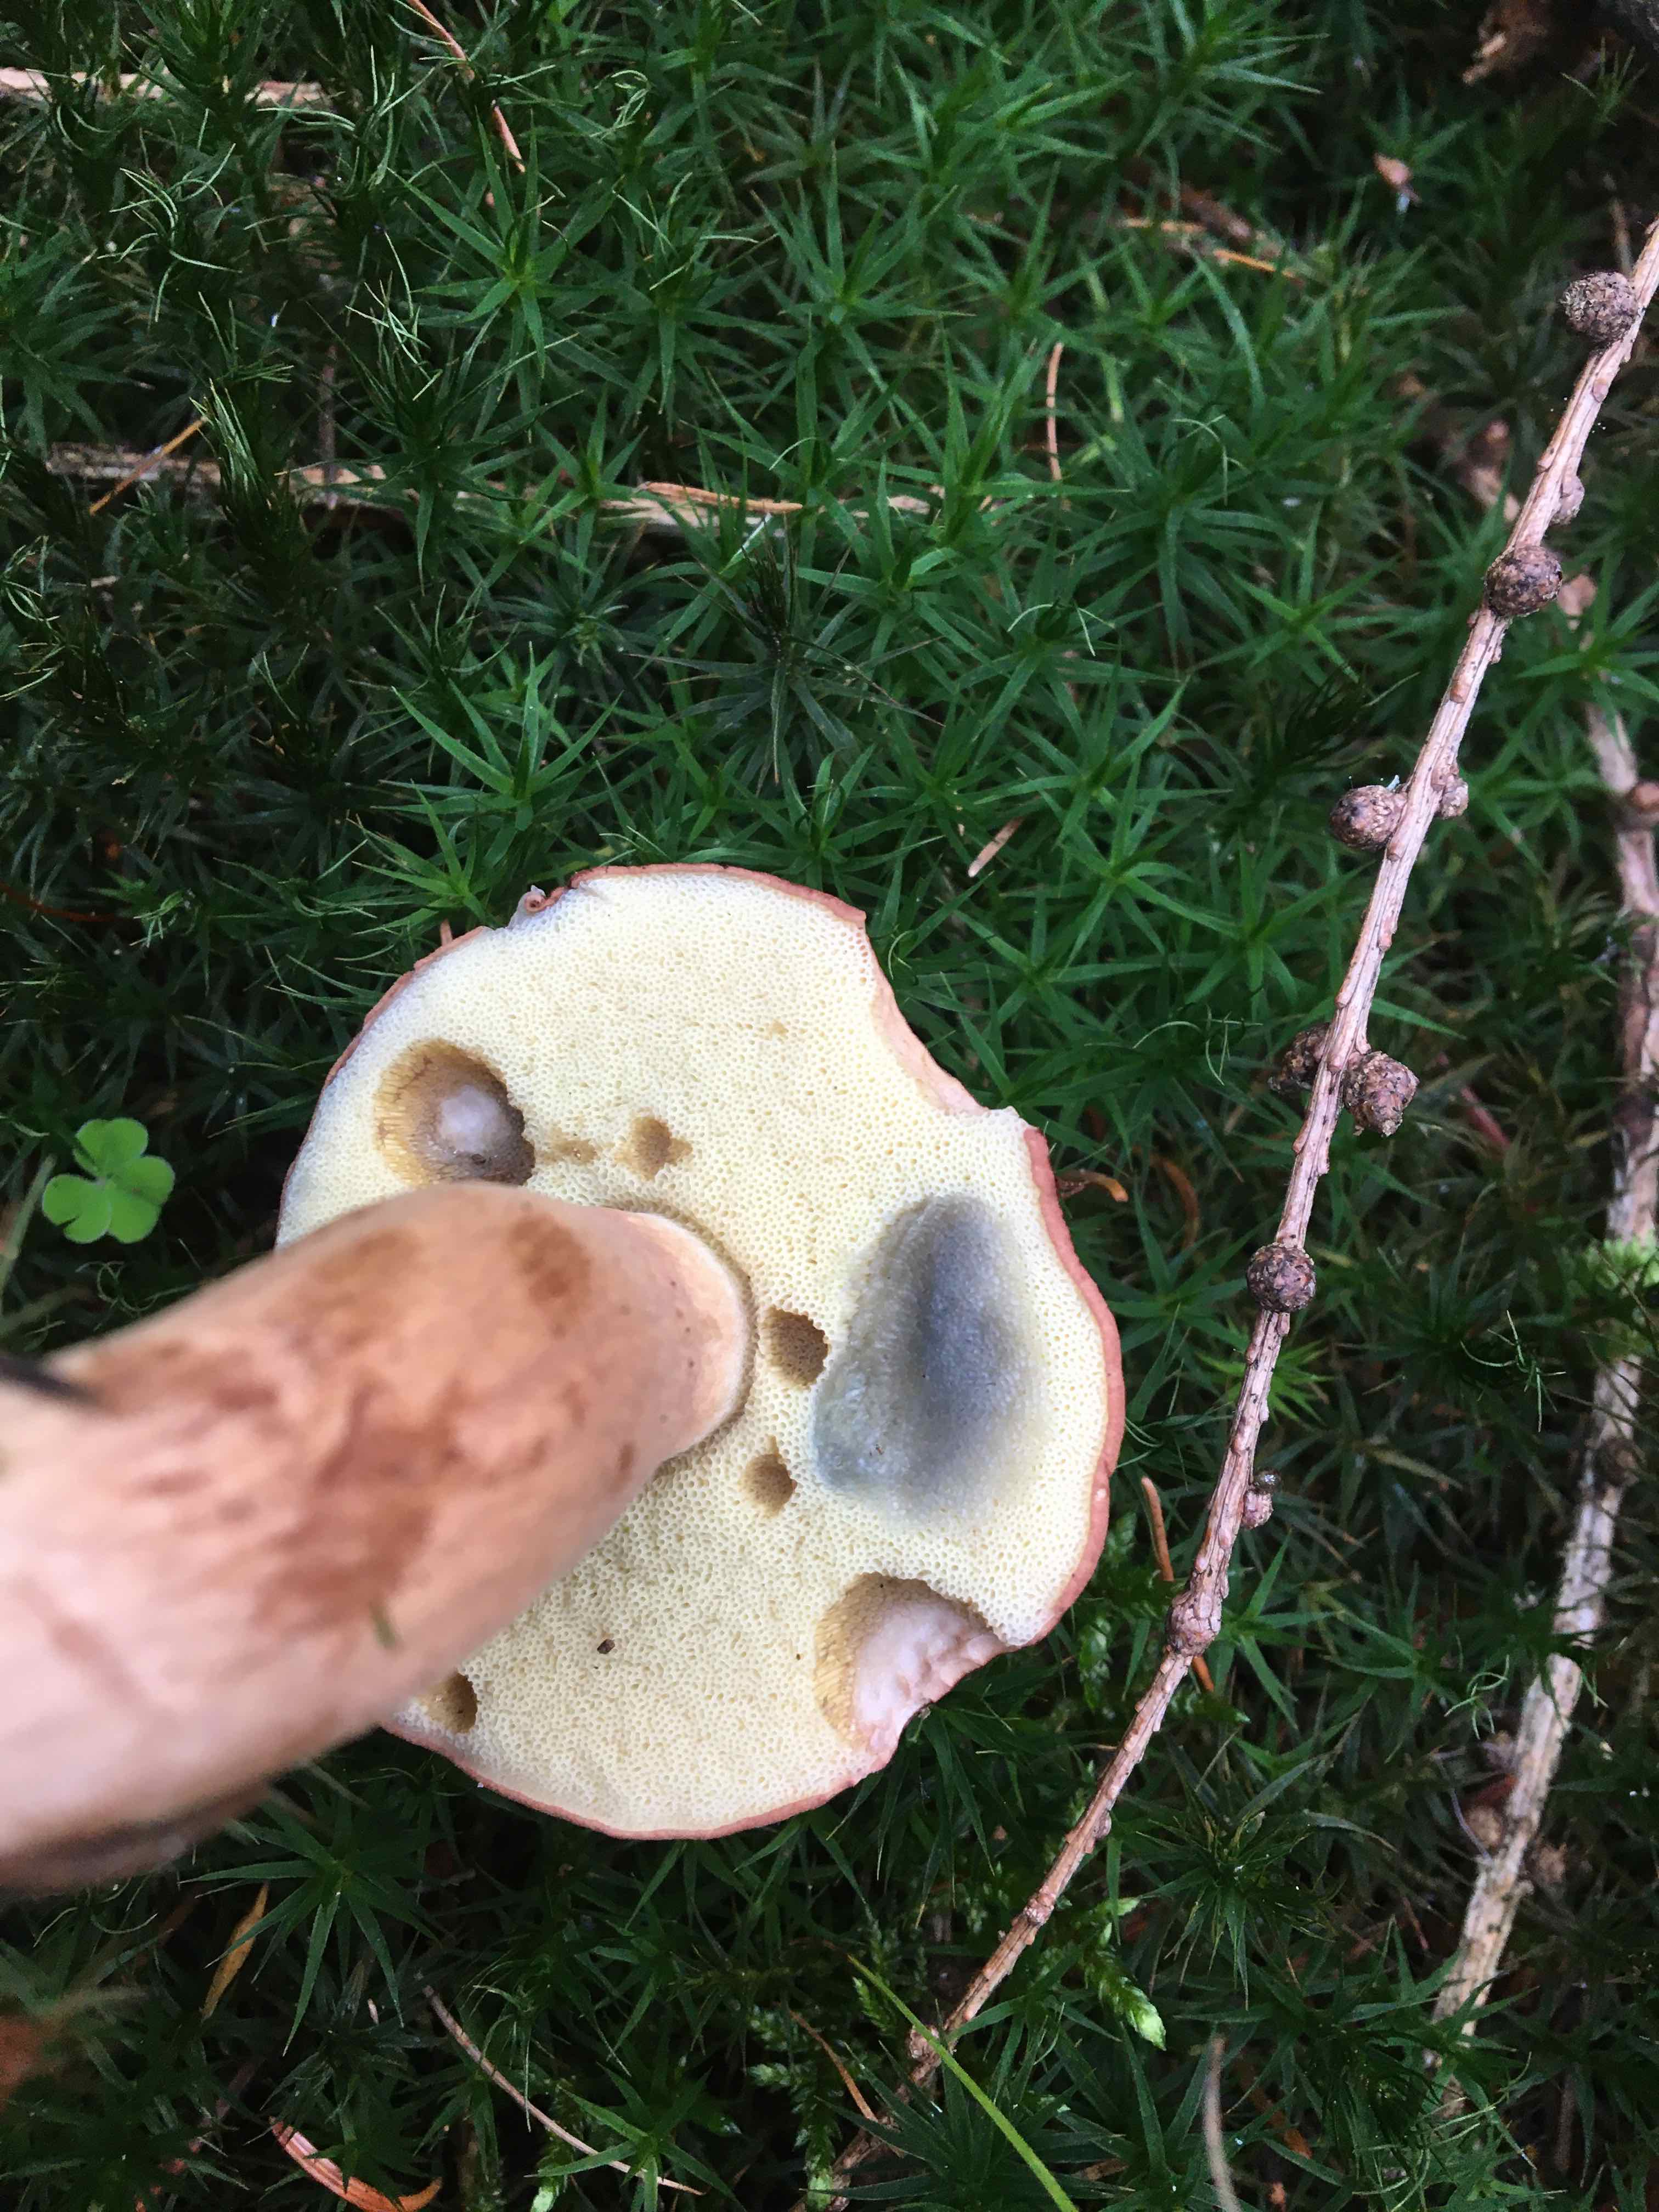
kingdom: Fungi
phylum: Basidiomycota
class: Agaricomycetes
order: Boletales
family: Boletaceae
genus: Imleria
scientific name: Imleria badia
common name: brunstokket rørhat
